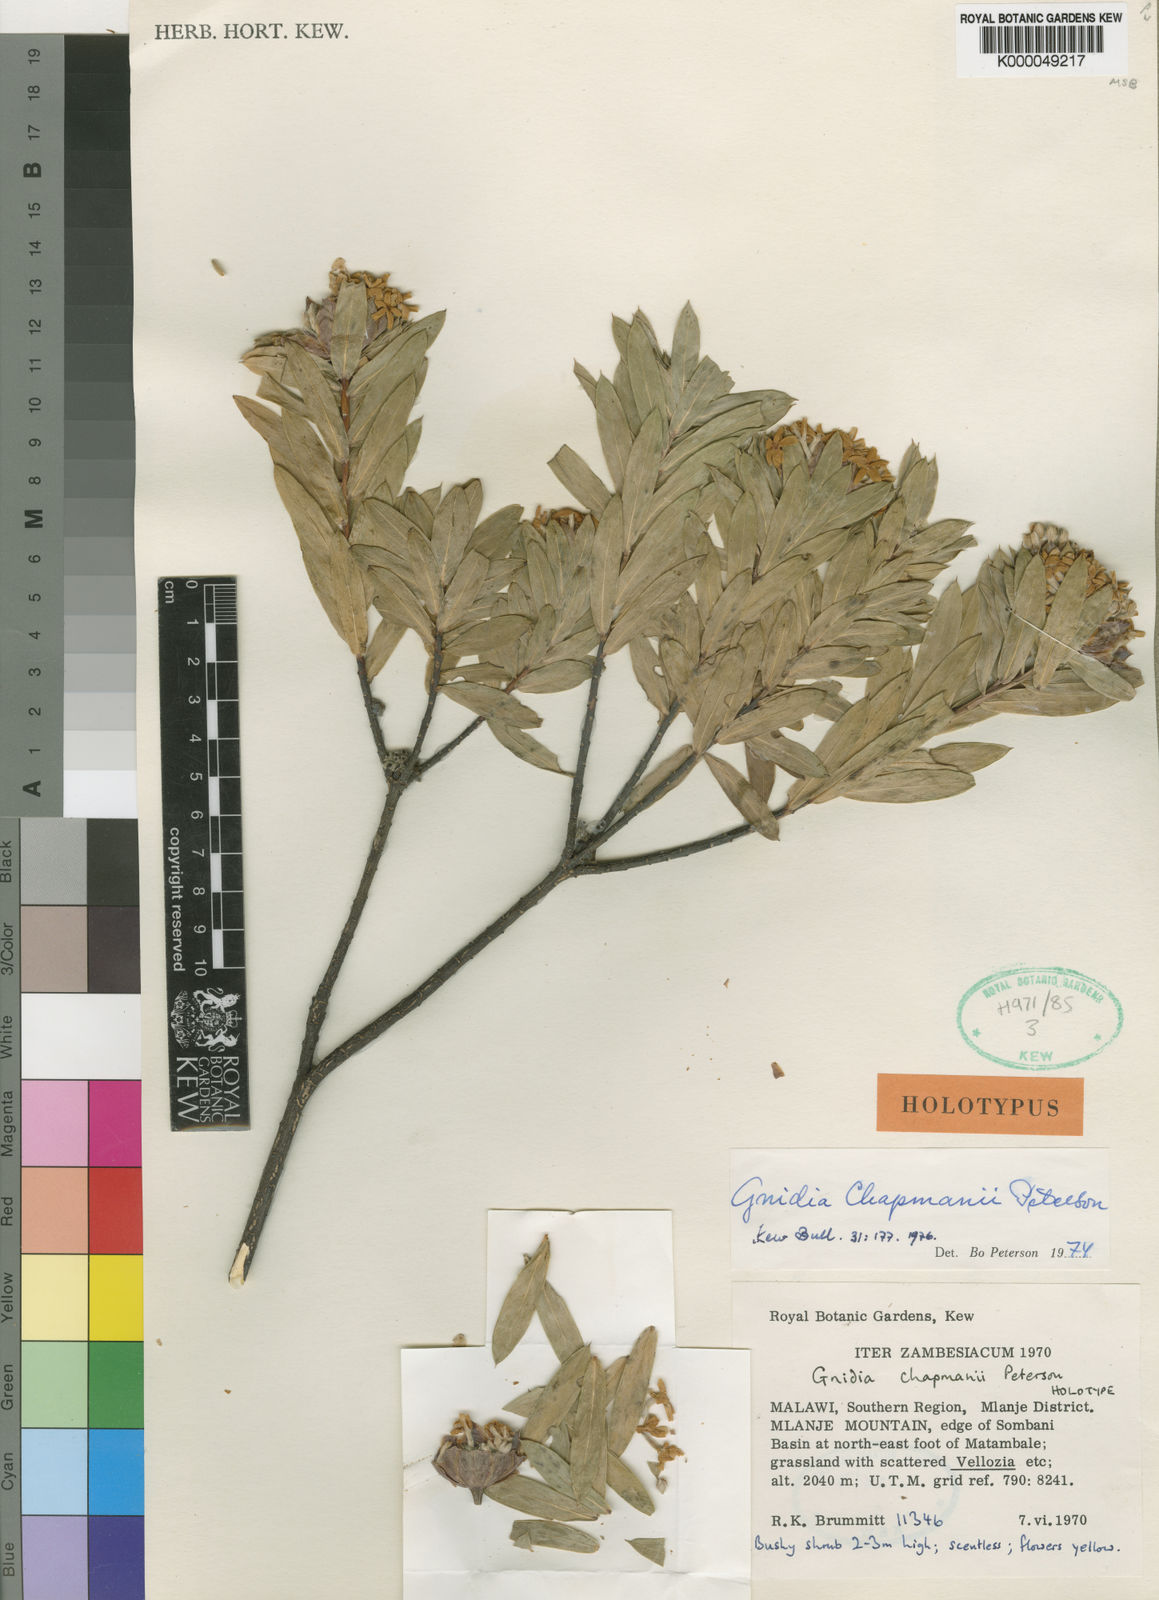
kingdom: Plantae
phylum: Tracheophyta
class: Magnoliopsida
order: Malvales
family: Thymelaeaceae
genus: Gnidia
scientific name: Gnidia chapmanii
